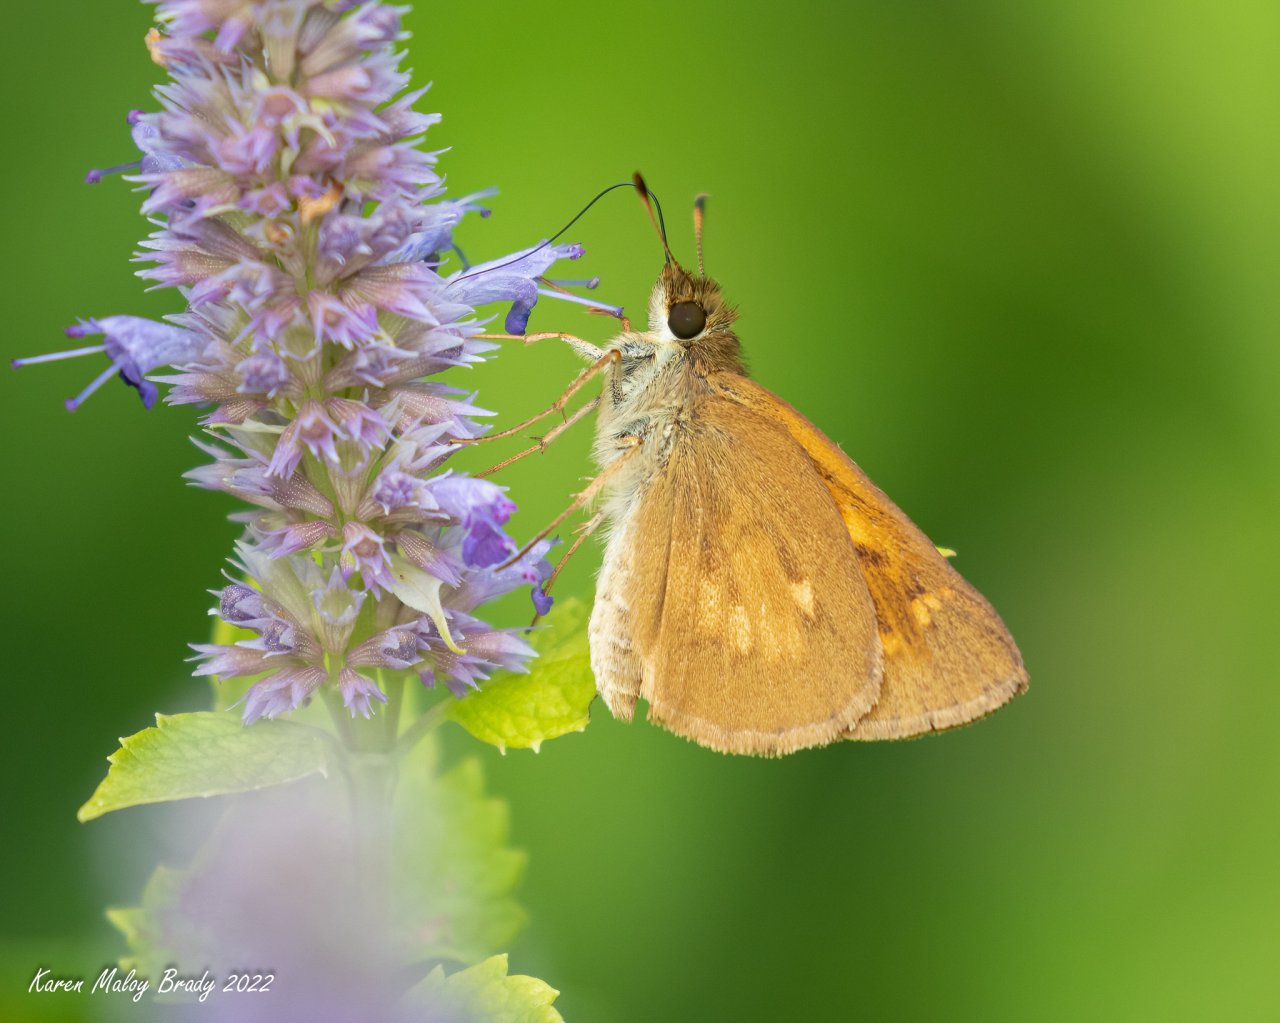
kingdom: Animalia
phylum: Arthropoda
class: Insecta
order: Lepidoptera
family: Hesperiidae
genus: Poanes
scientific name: Poanes viator
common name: Broad-winged Skipper
